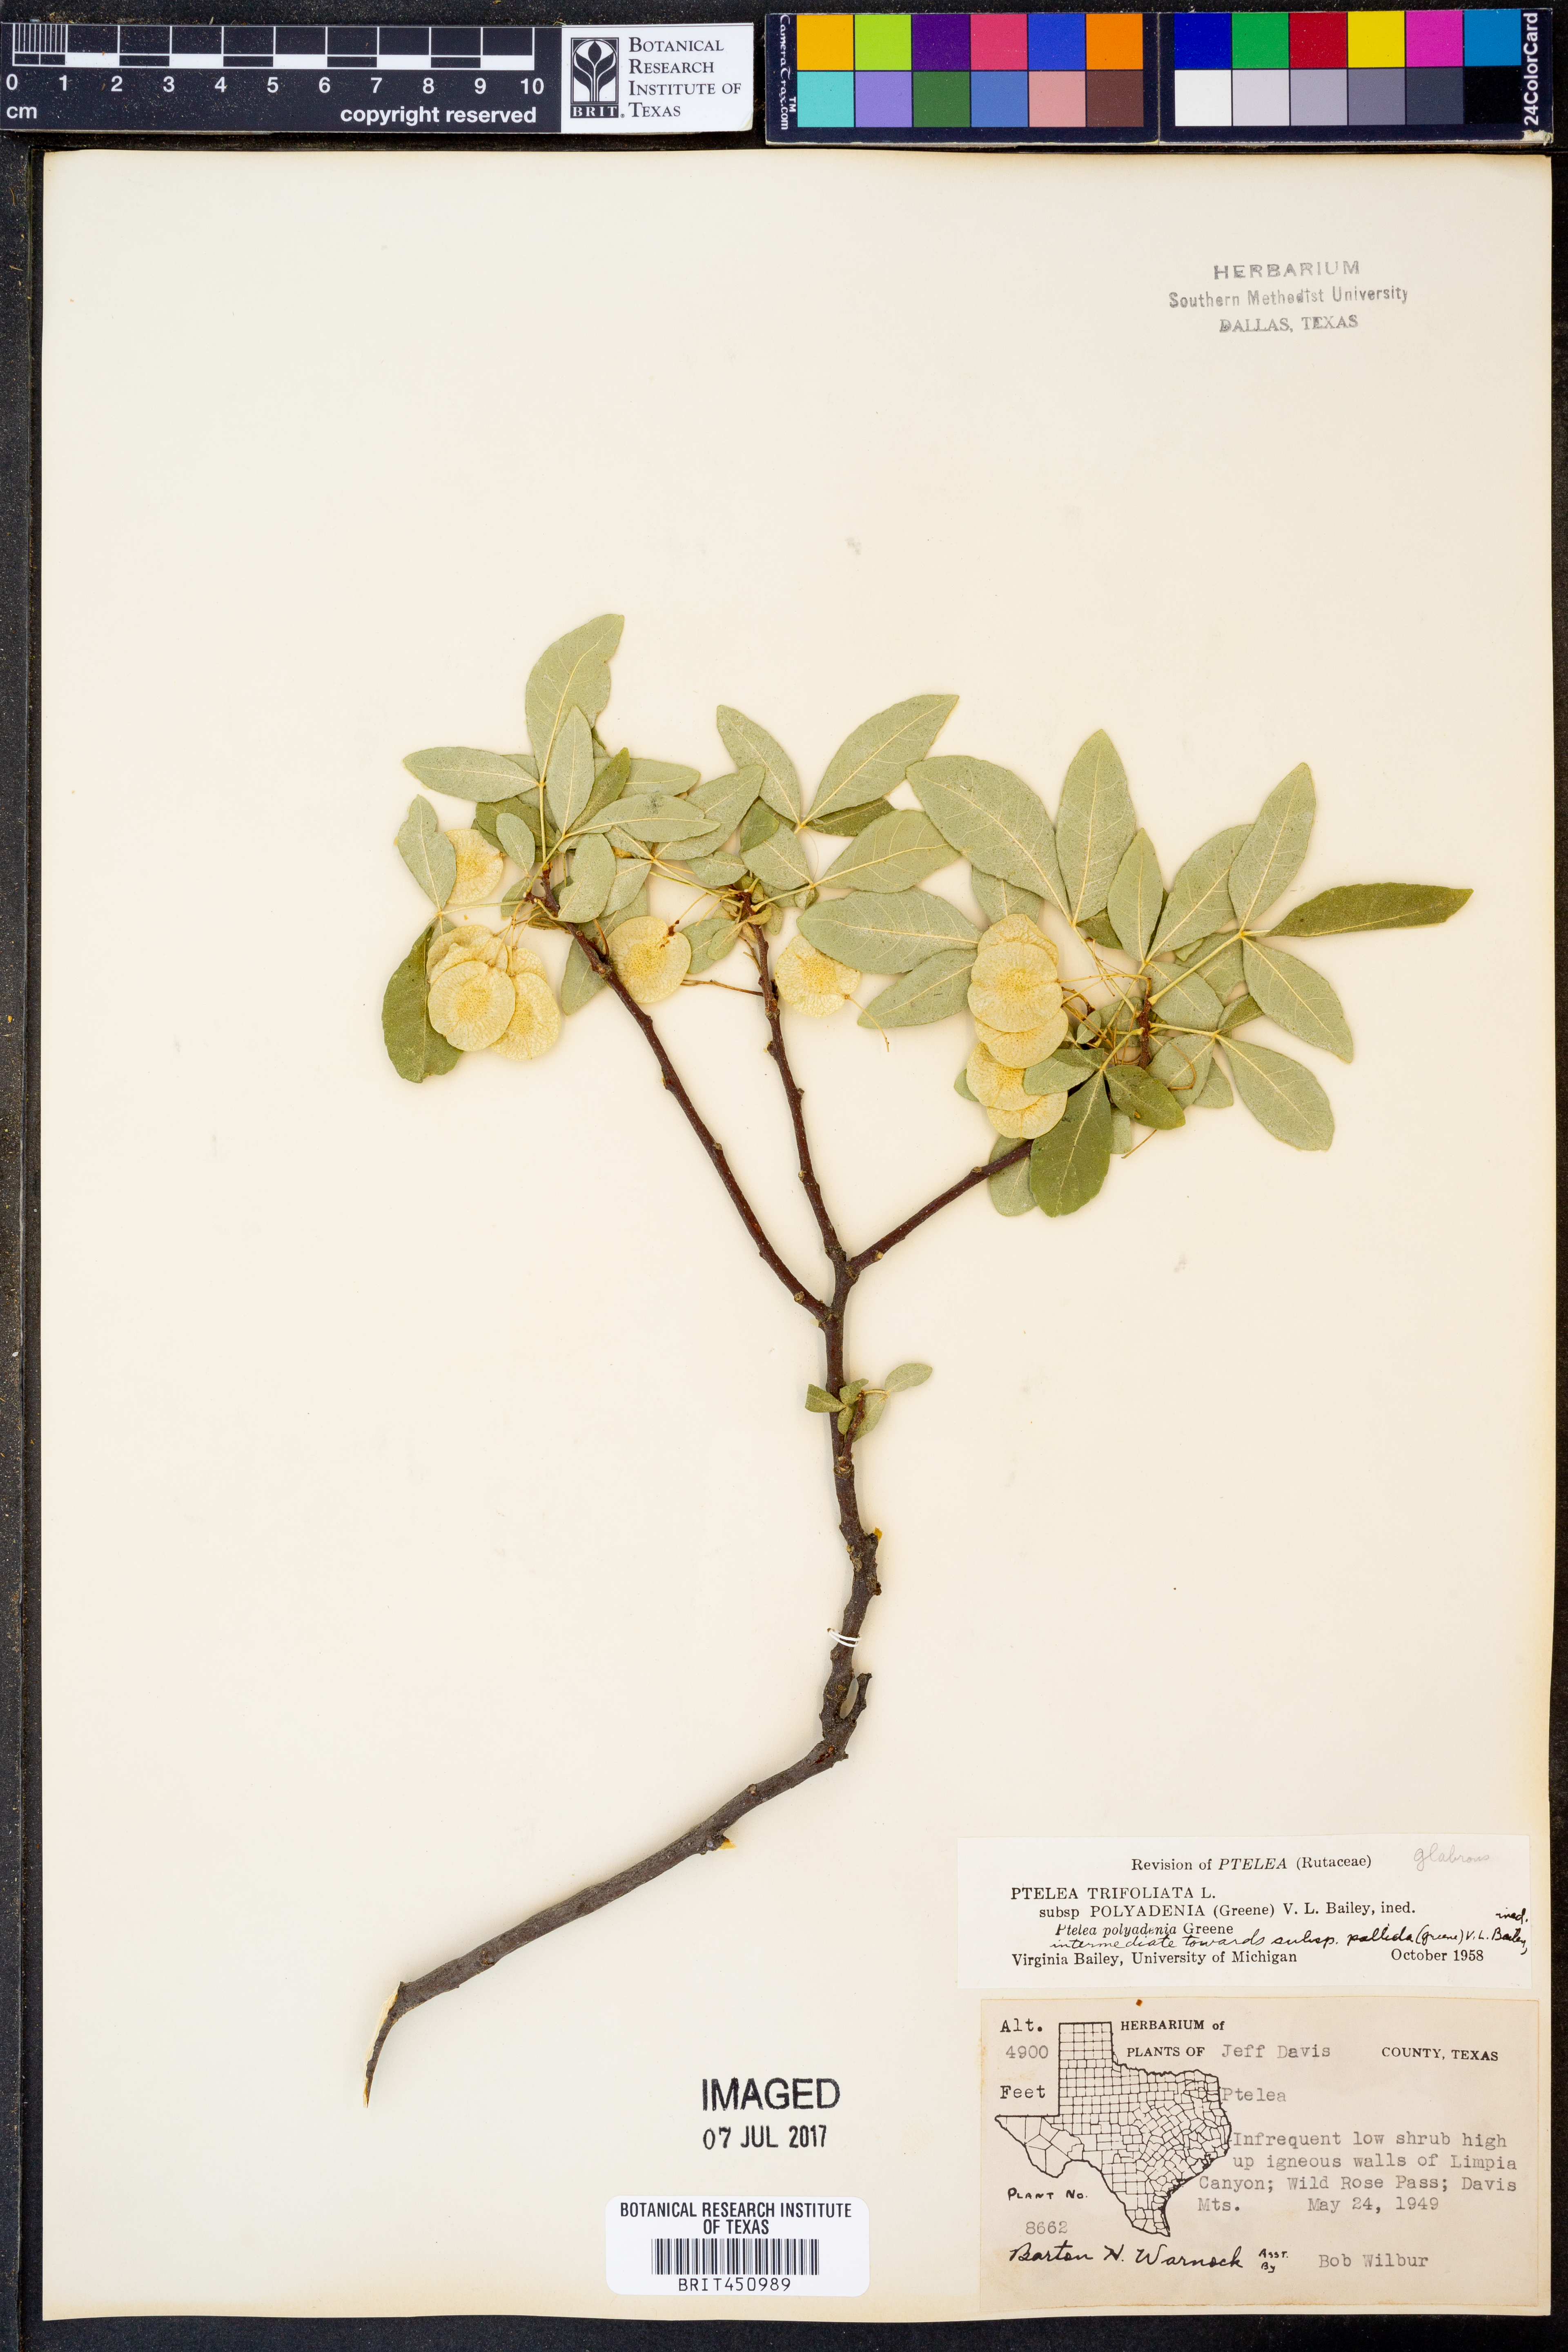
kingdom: Plantae
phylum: Tracheophyta
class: Magnoliopsida
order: Sapindales
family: Rutaceae
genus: Ptelea
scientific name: Ptelea trifoliata
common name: Common hop-tree
